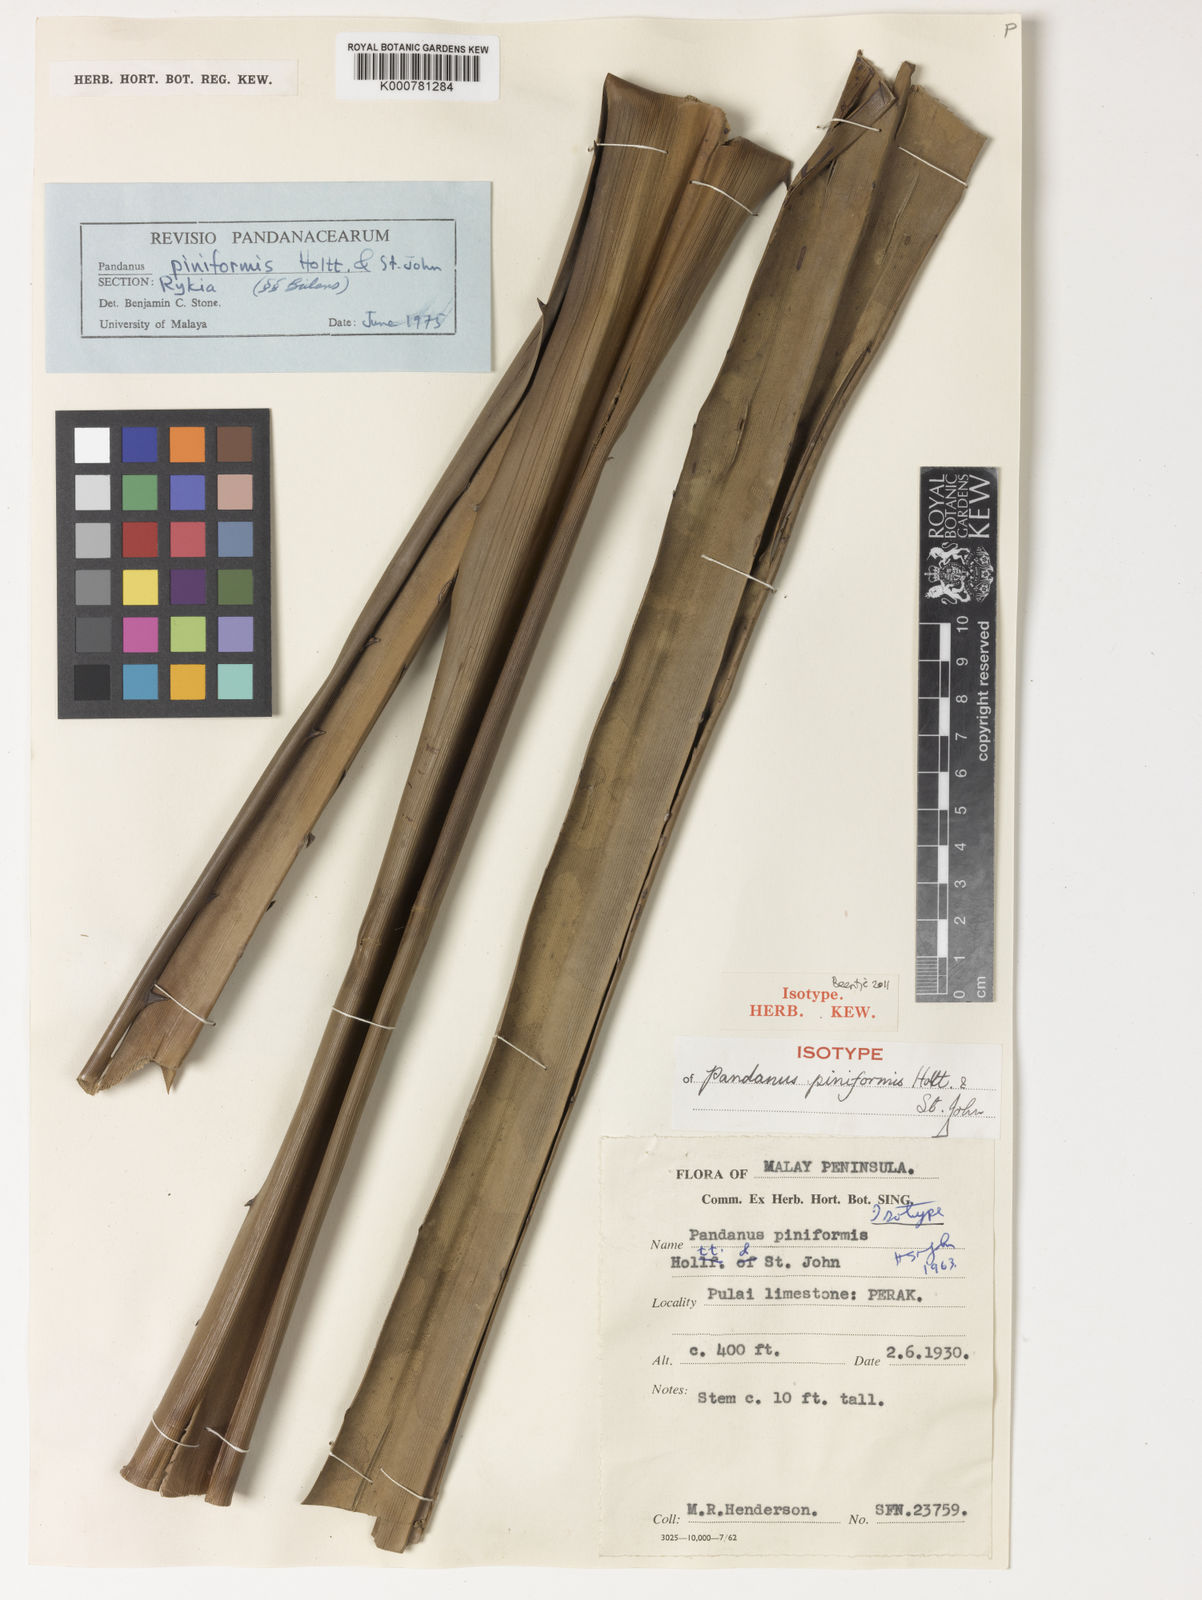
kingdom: Plantae
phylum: Tracheophyta
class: Liliopsida
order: Pandanales
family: Pandanaceae
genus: Pandanus
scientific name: Pandanus piniformis
